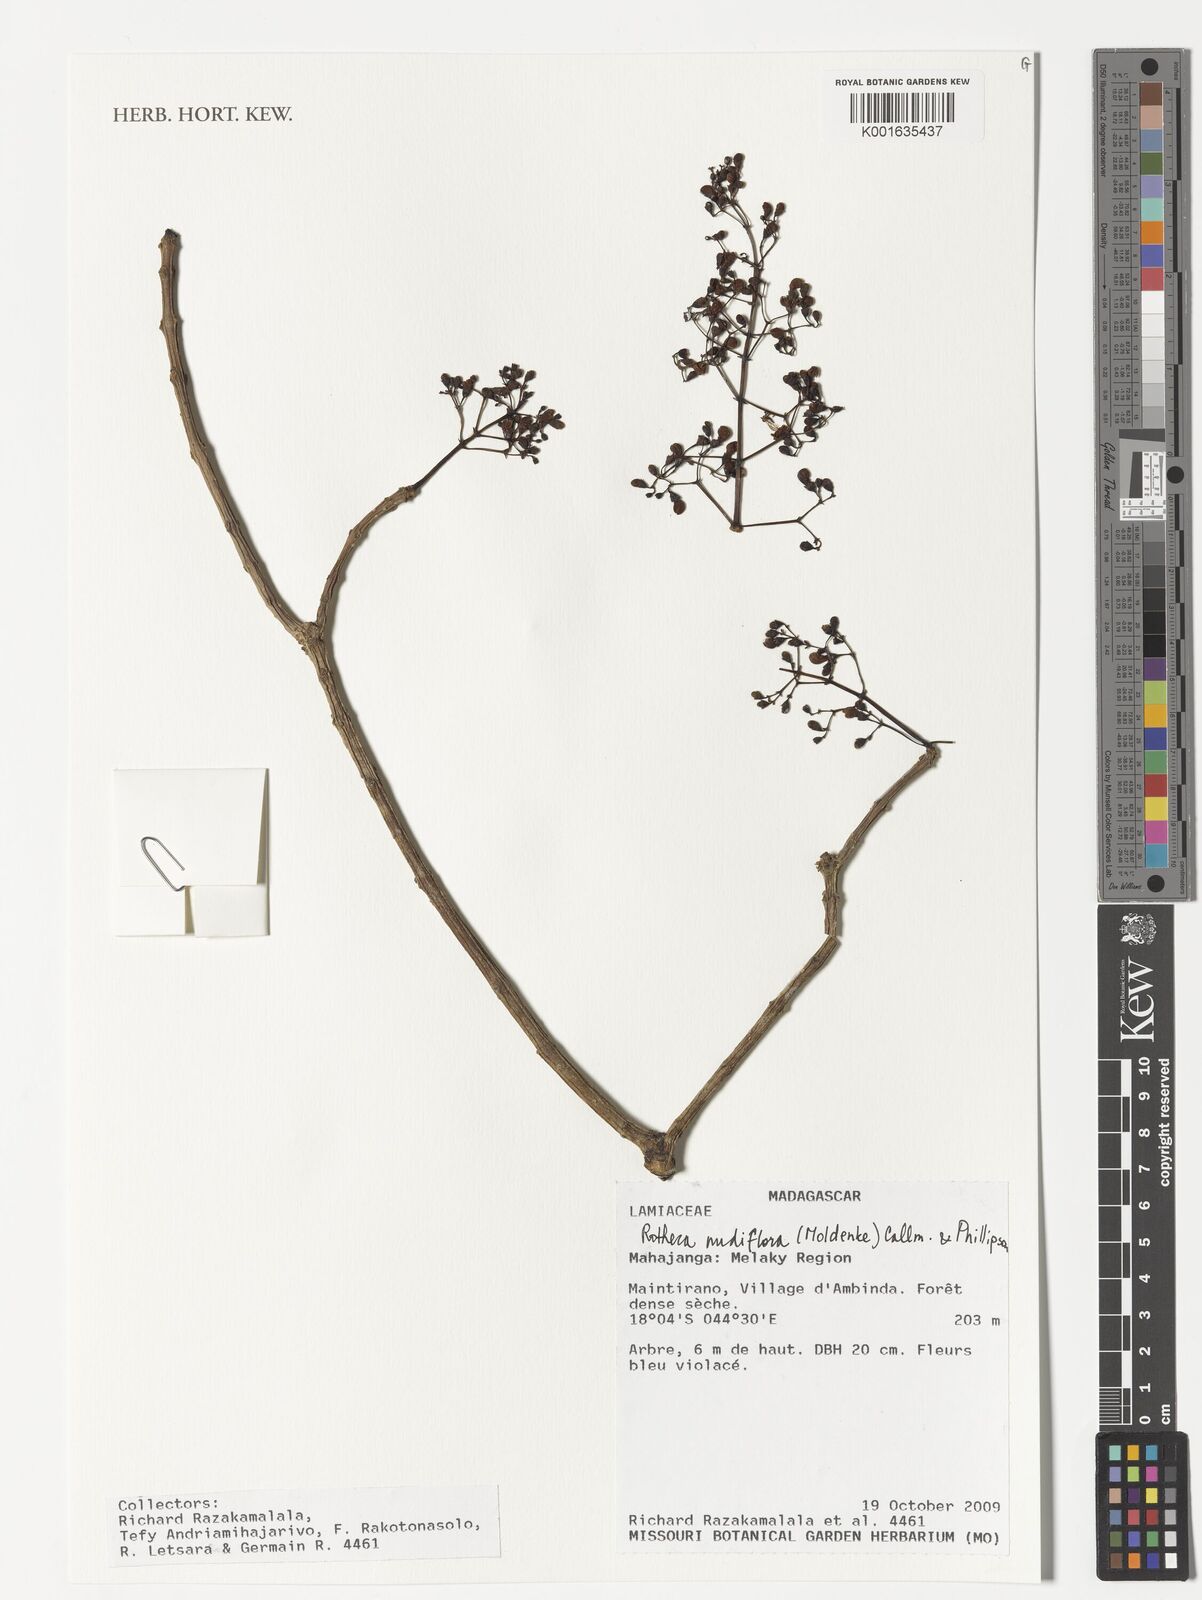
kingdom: Plantae
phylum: Tracheophyta
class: Magnoliopsida
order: Lamiales
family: Lamiaceae
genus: Rotheca
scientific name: Rotheca nudiflora
